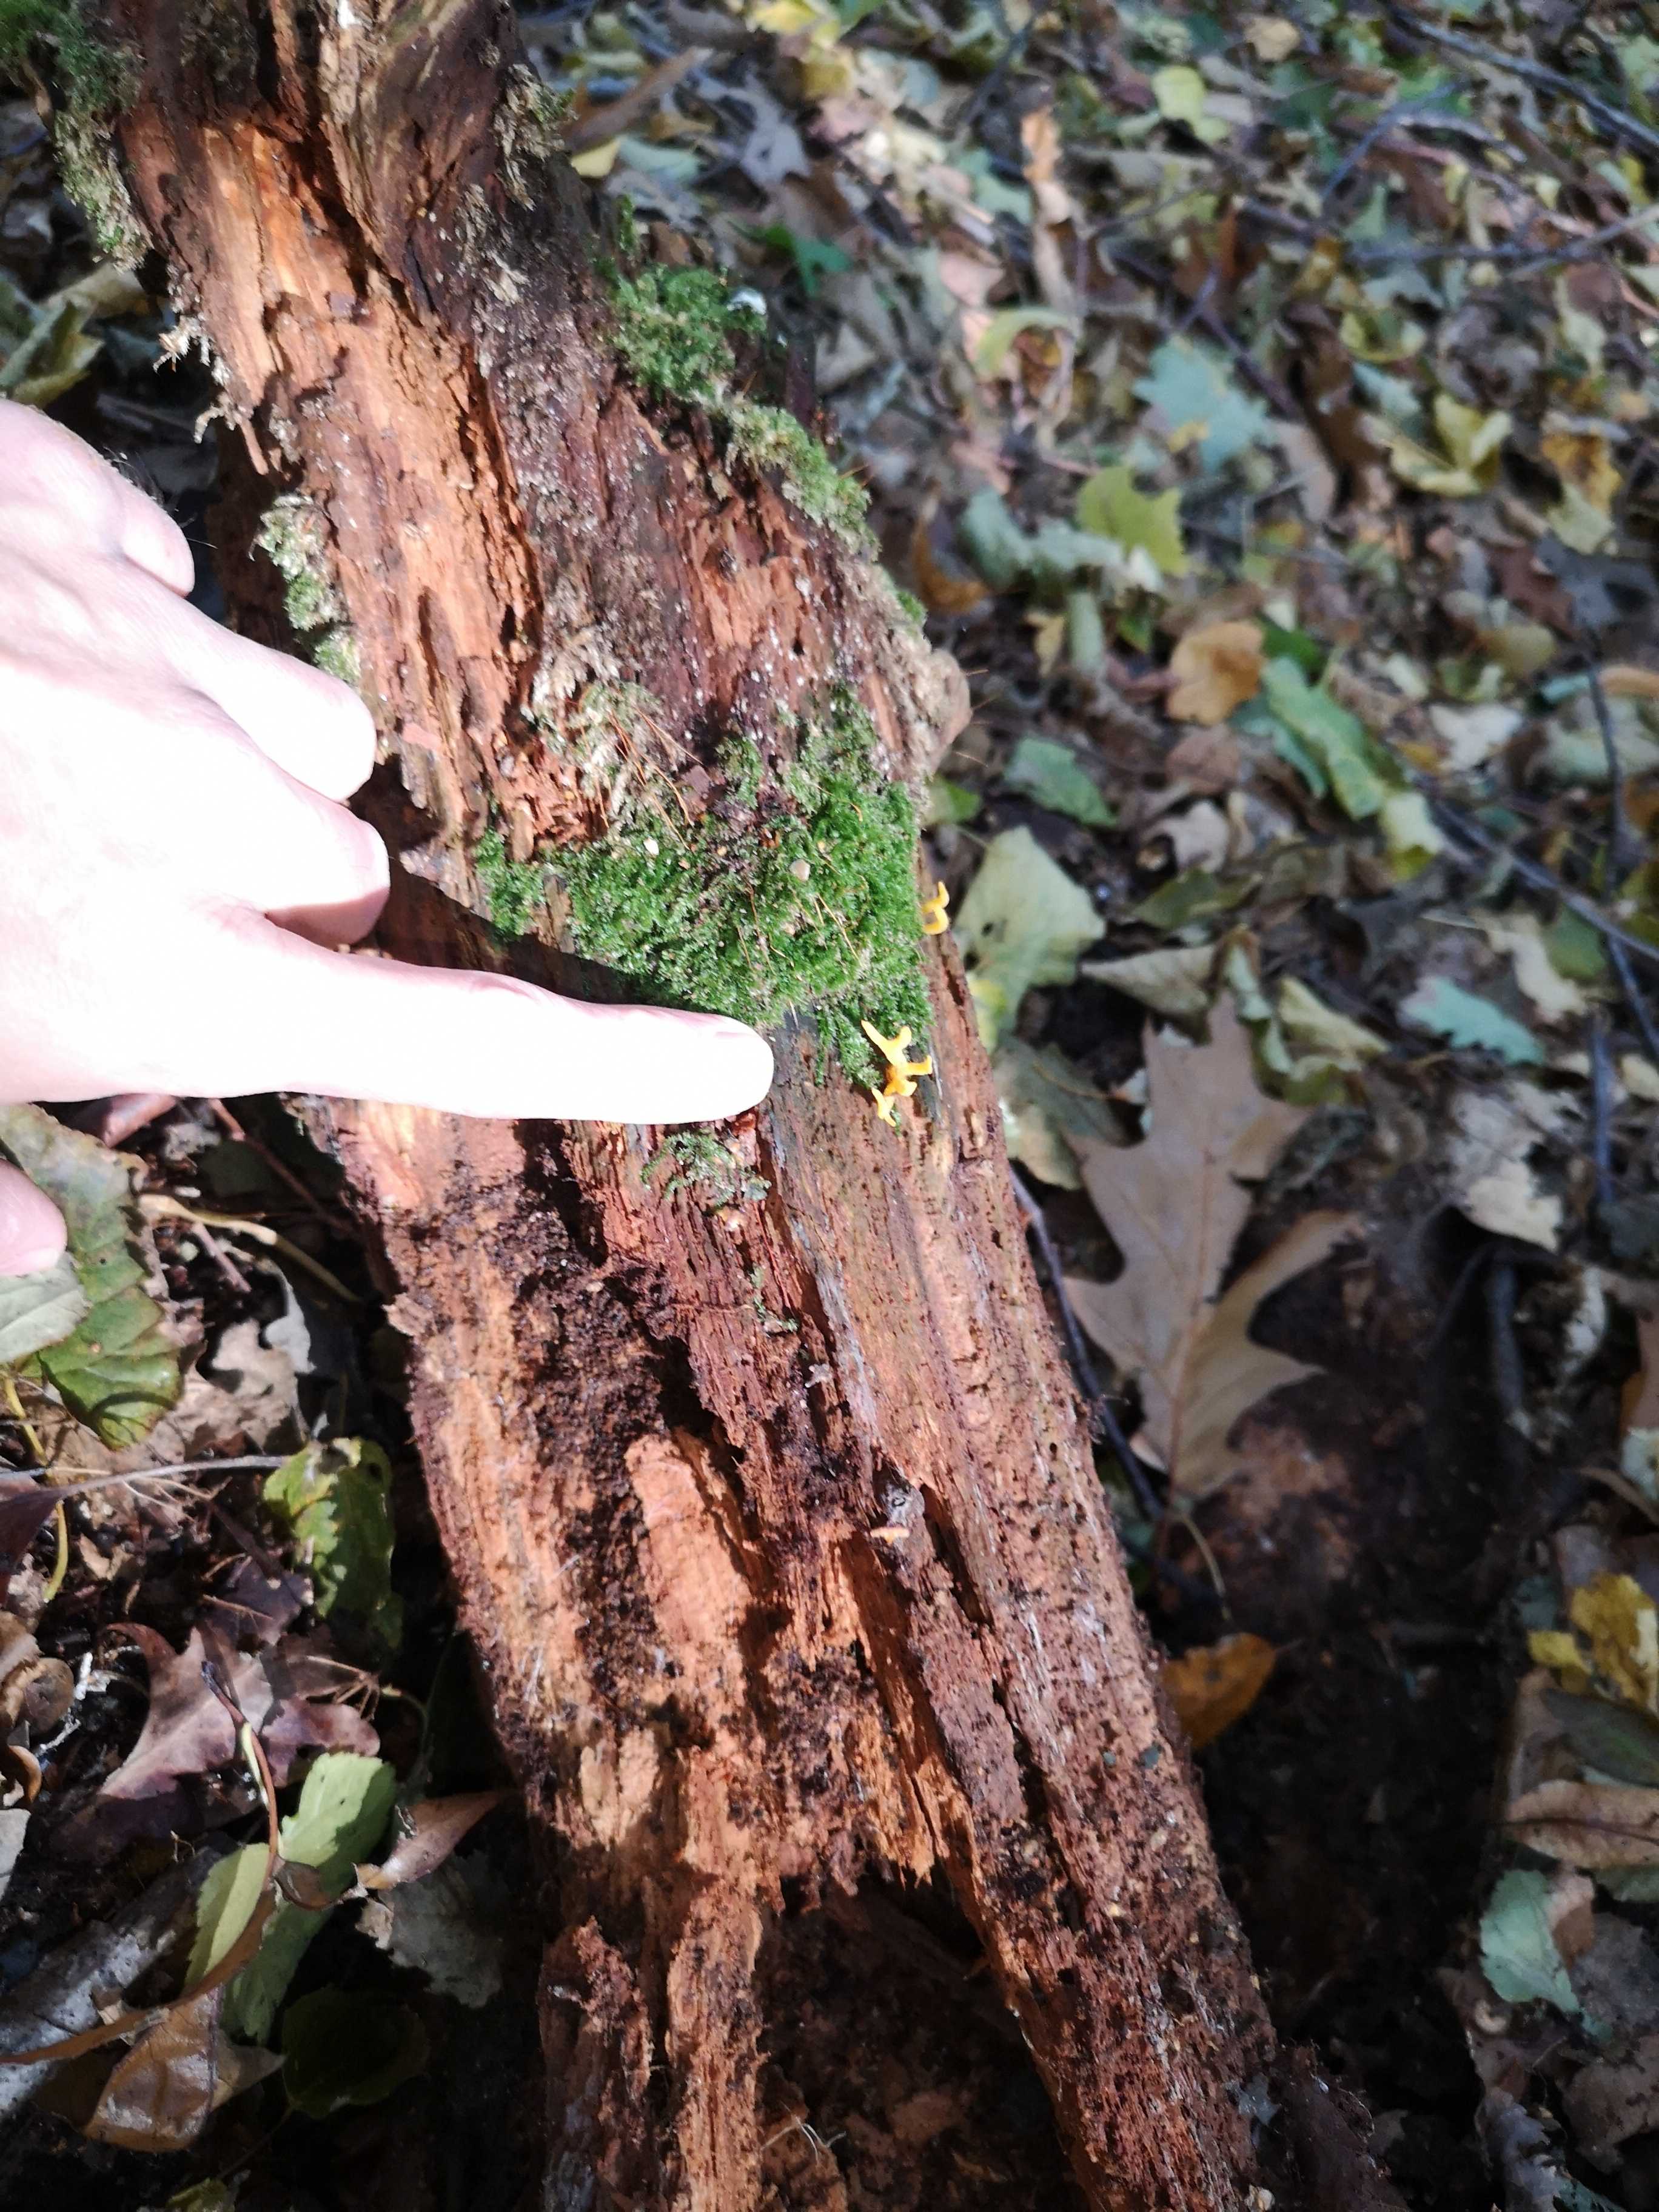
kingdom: Fungi
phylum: Basidiomycota
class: Dacrymycetes
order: Dacrymycetales
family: Dacrymycetaceae
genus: Calocera
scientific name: Calocera
